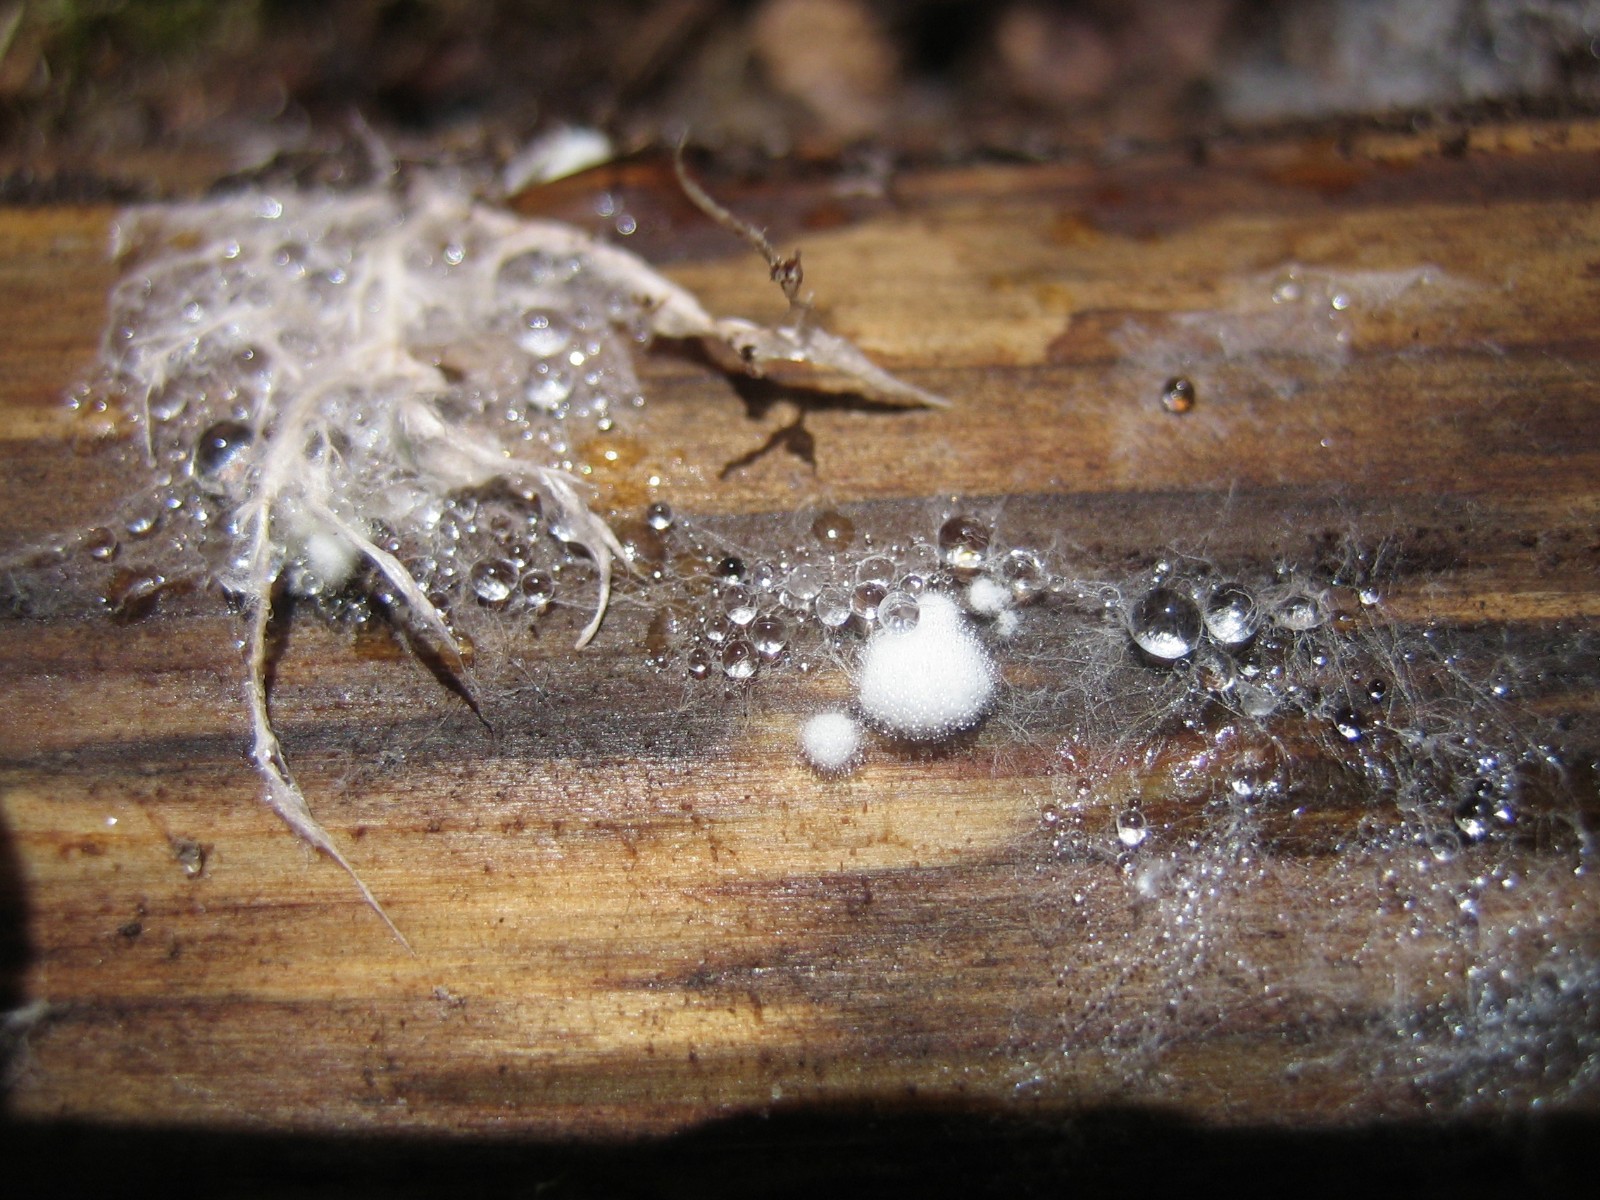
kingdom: Fungi
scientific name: Fungi
